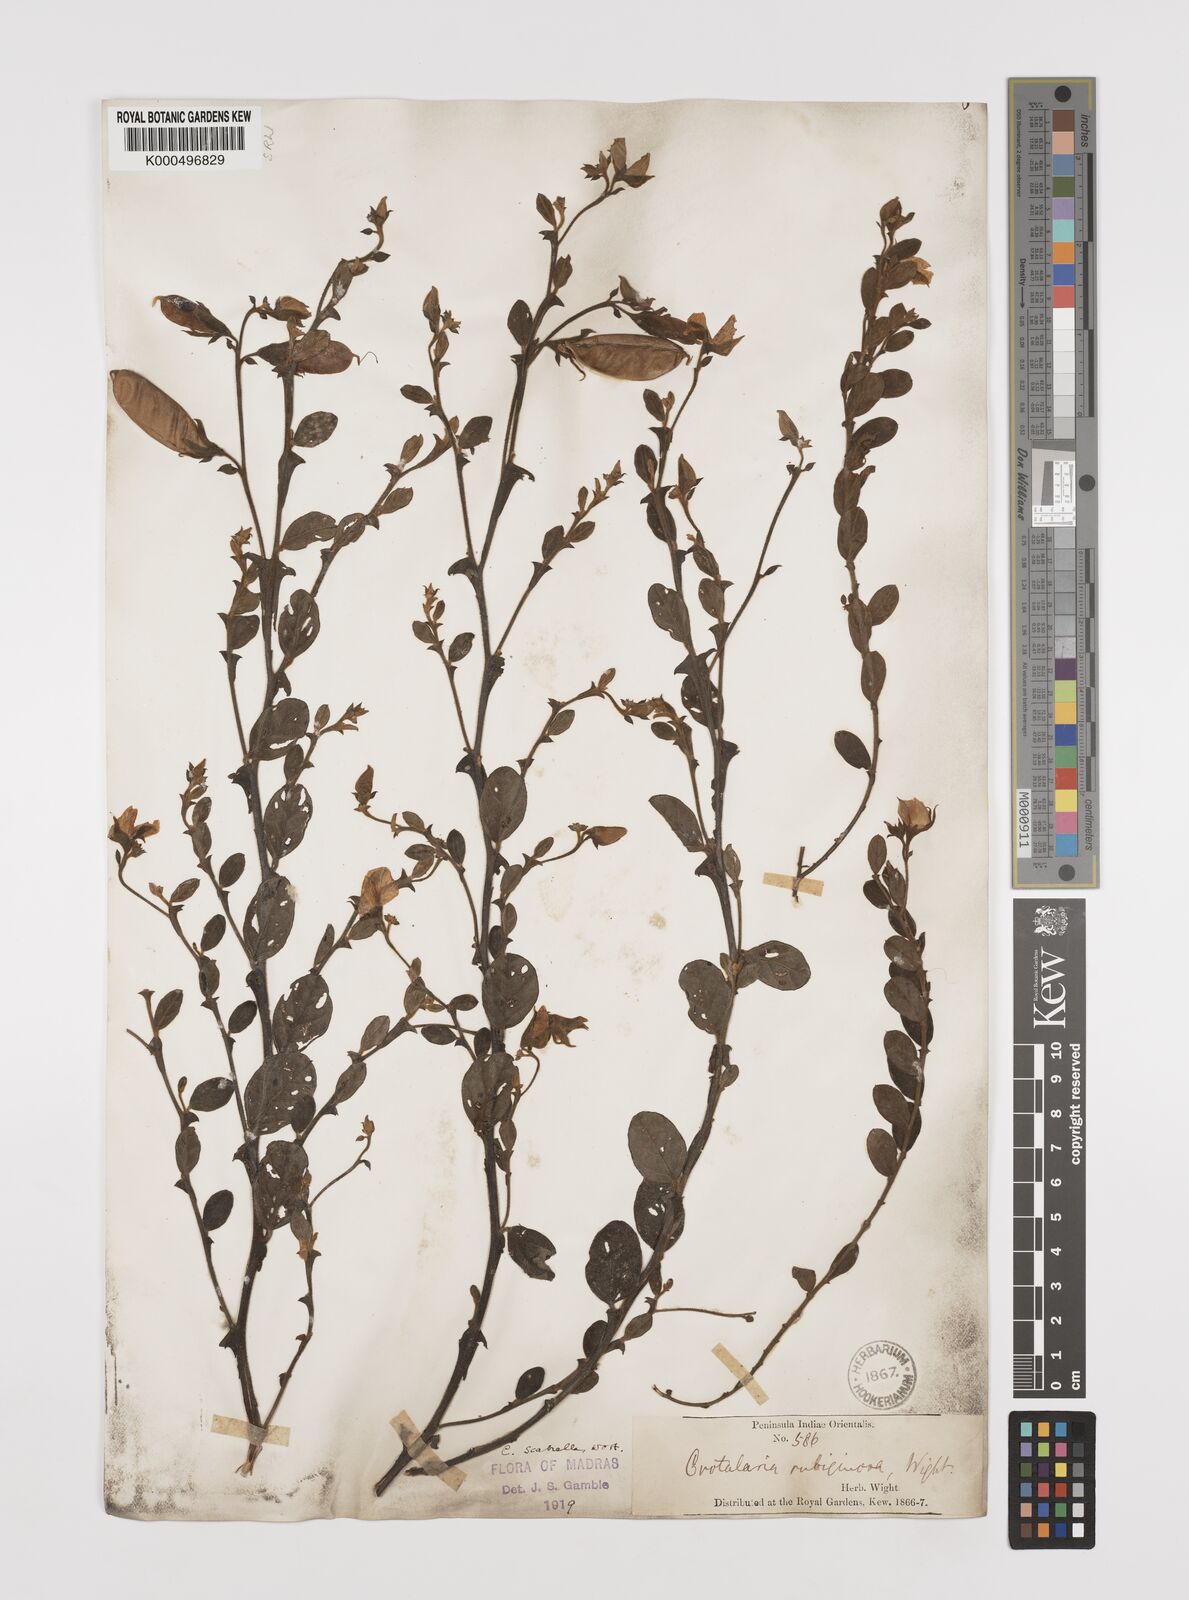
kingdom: Plantae
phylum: Tracheophyta
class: Magnoliopsida
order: Fabales
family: Fabaceae
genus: Crotalaria
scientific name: Crotalaria scabrella
